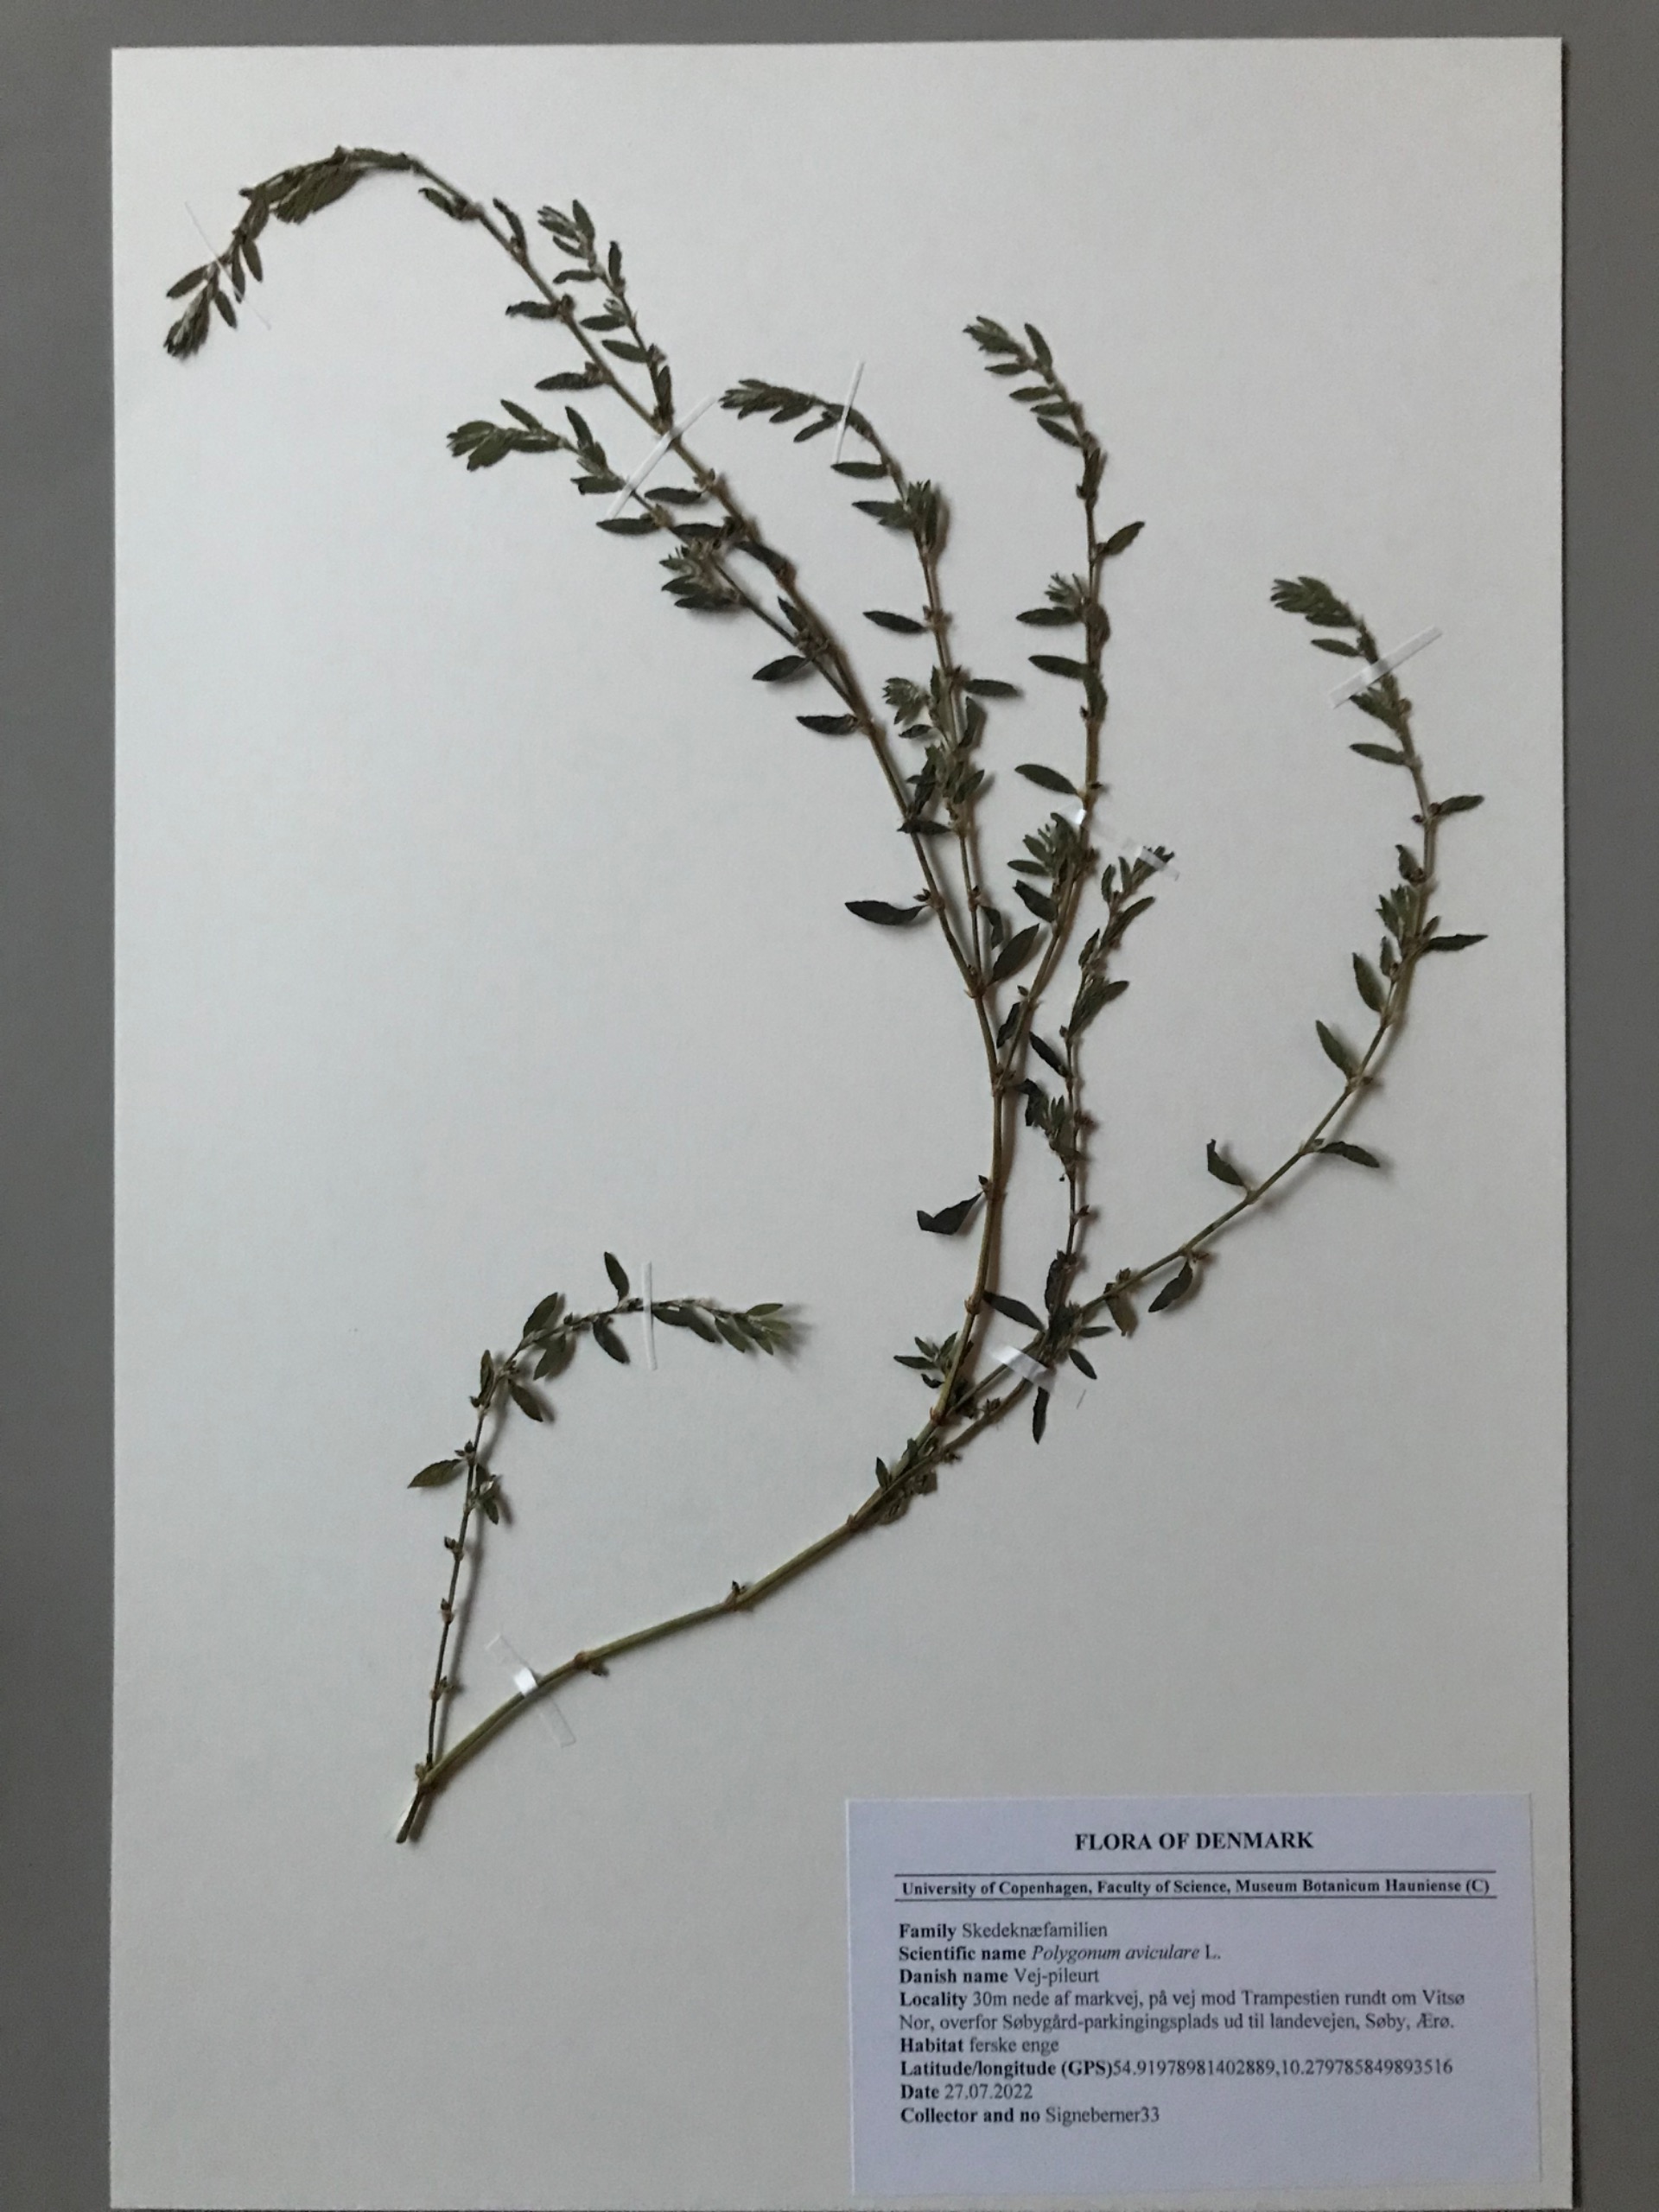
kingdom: Plantae
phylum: Tracheophyta
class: Magnoliopsida
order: Caryophyllales
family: Polygonaceae
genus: Polygonum
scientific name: Polygonum arenastrum
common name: Liggende vej-pileurt
